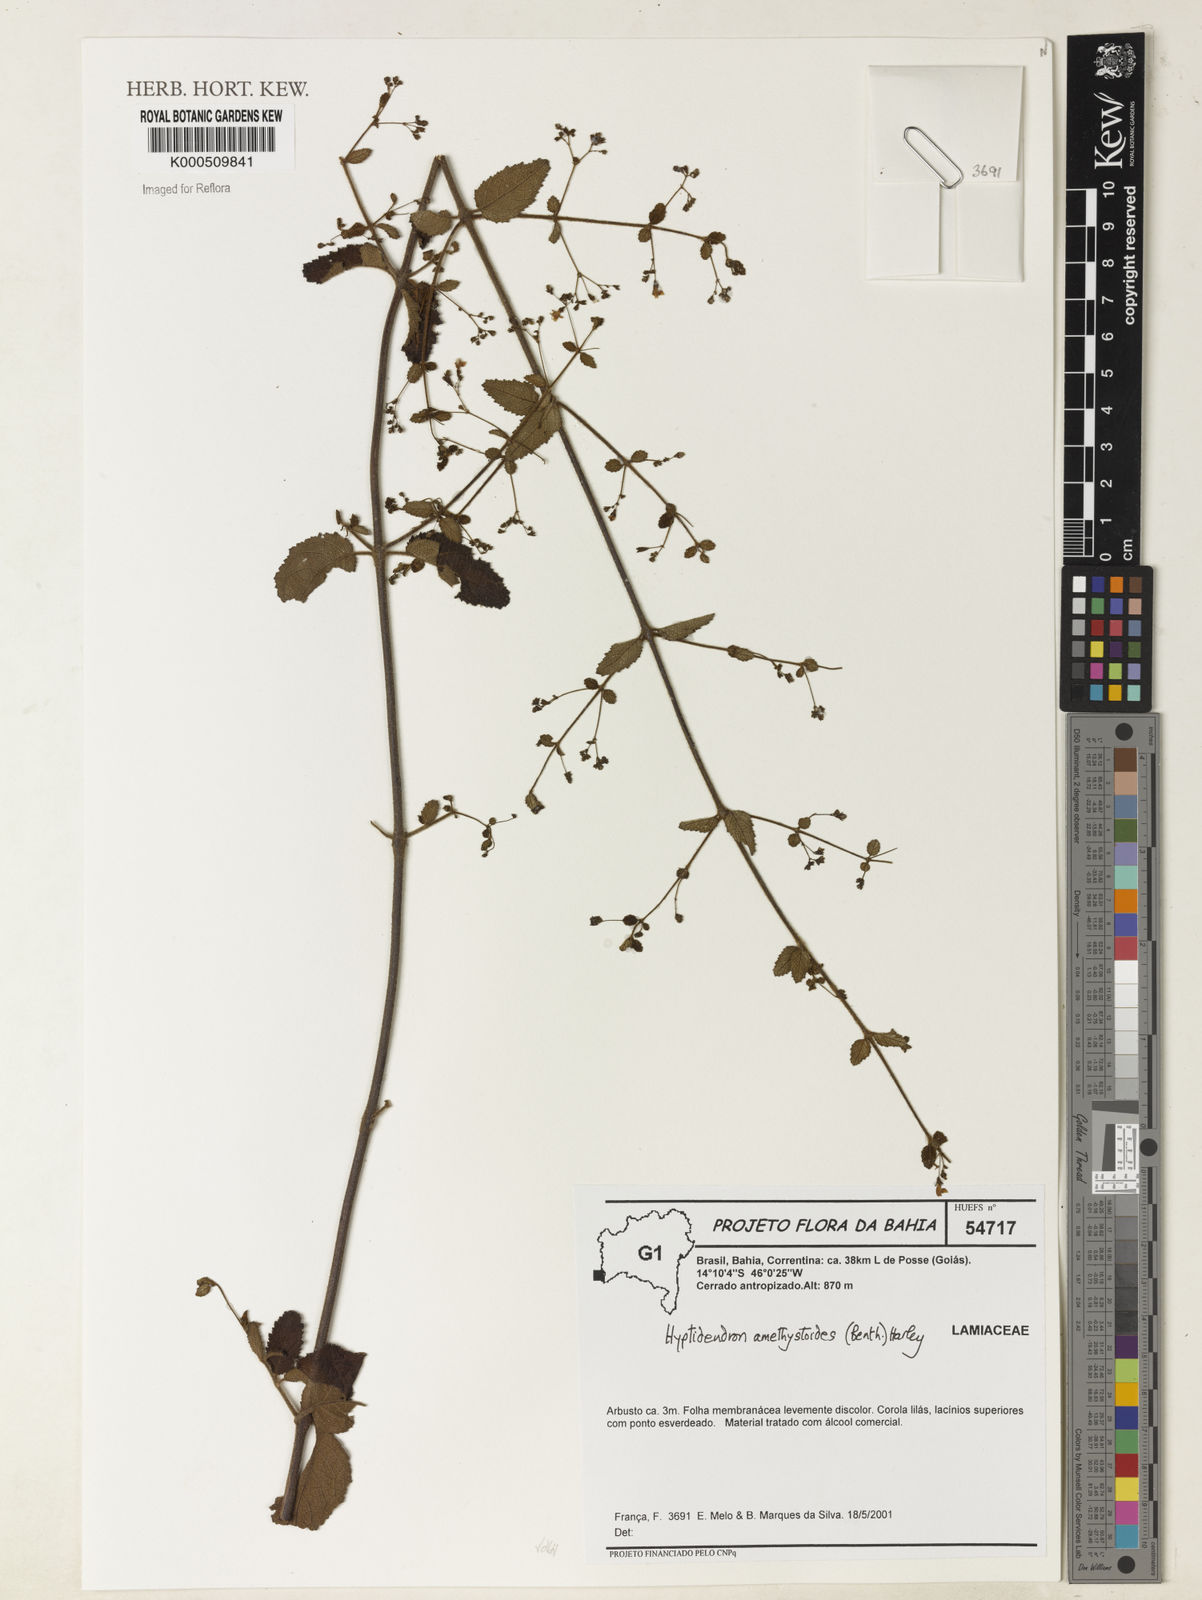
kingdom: Plantae
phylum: Tracheophyta
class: Magnoliopsida
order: Lamiales
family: Lamiaceae
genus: Hyptidendron
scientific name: Hyptidendron amethystoides
